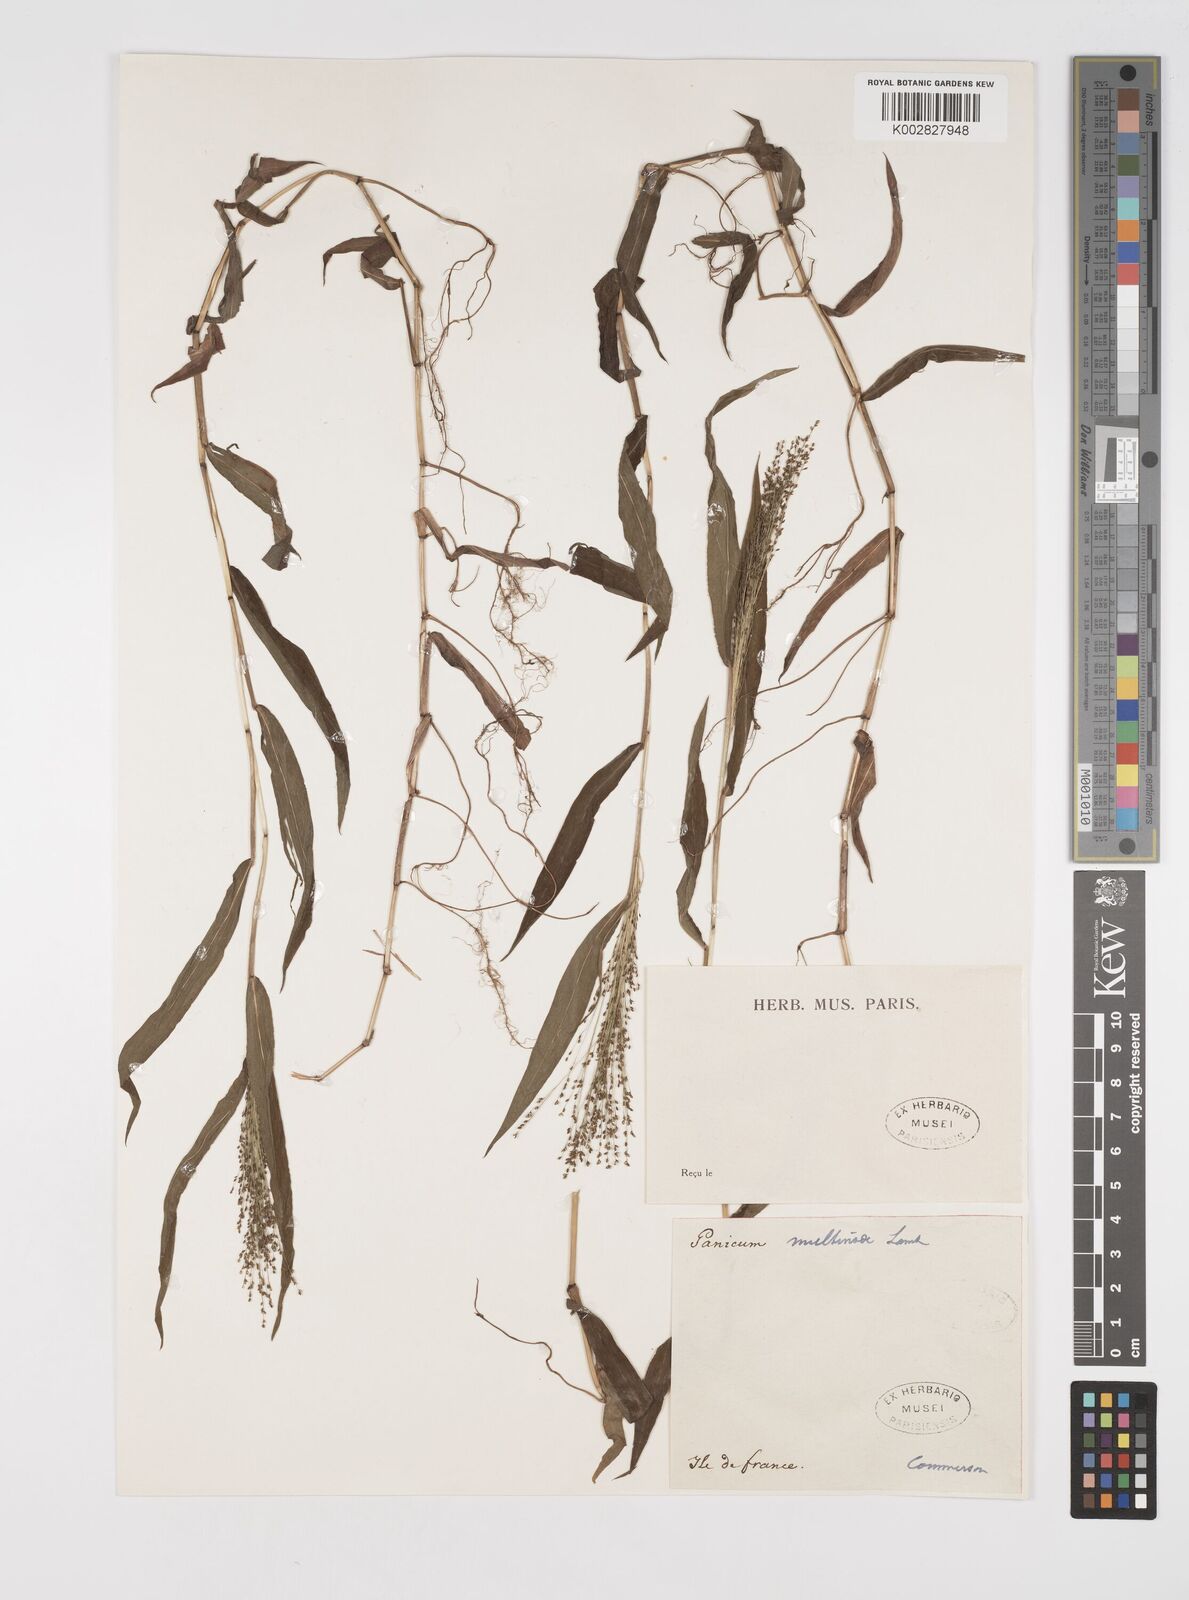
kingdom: Plantae
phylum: Tracheophyta
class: Liliopsida
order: Poales
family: Poaceae
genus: Cyrtococcum
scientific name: Cyrtococcum multinode
